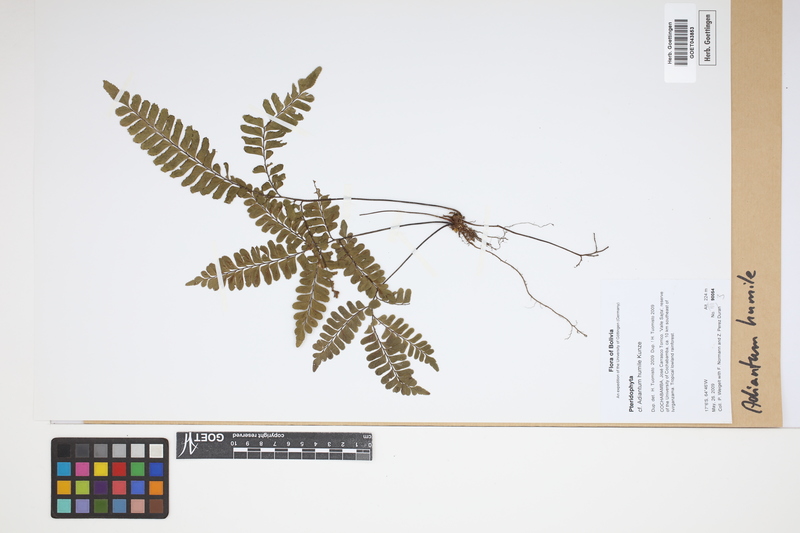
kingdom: Plantae
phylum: Tracheophyta
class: Polypodiopsida
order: Polypodiales
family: Pteridaceae
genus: Adiantum
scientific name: Adiantum humile
